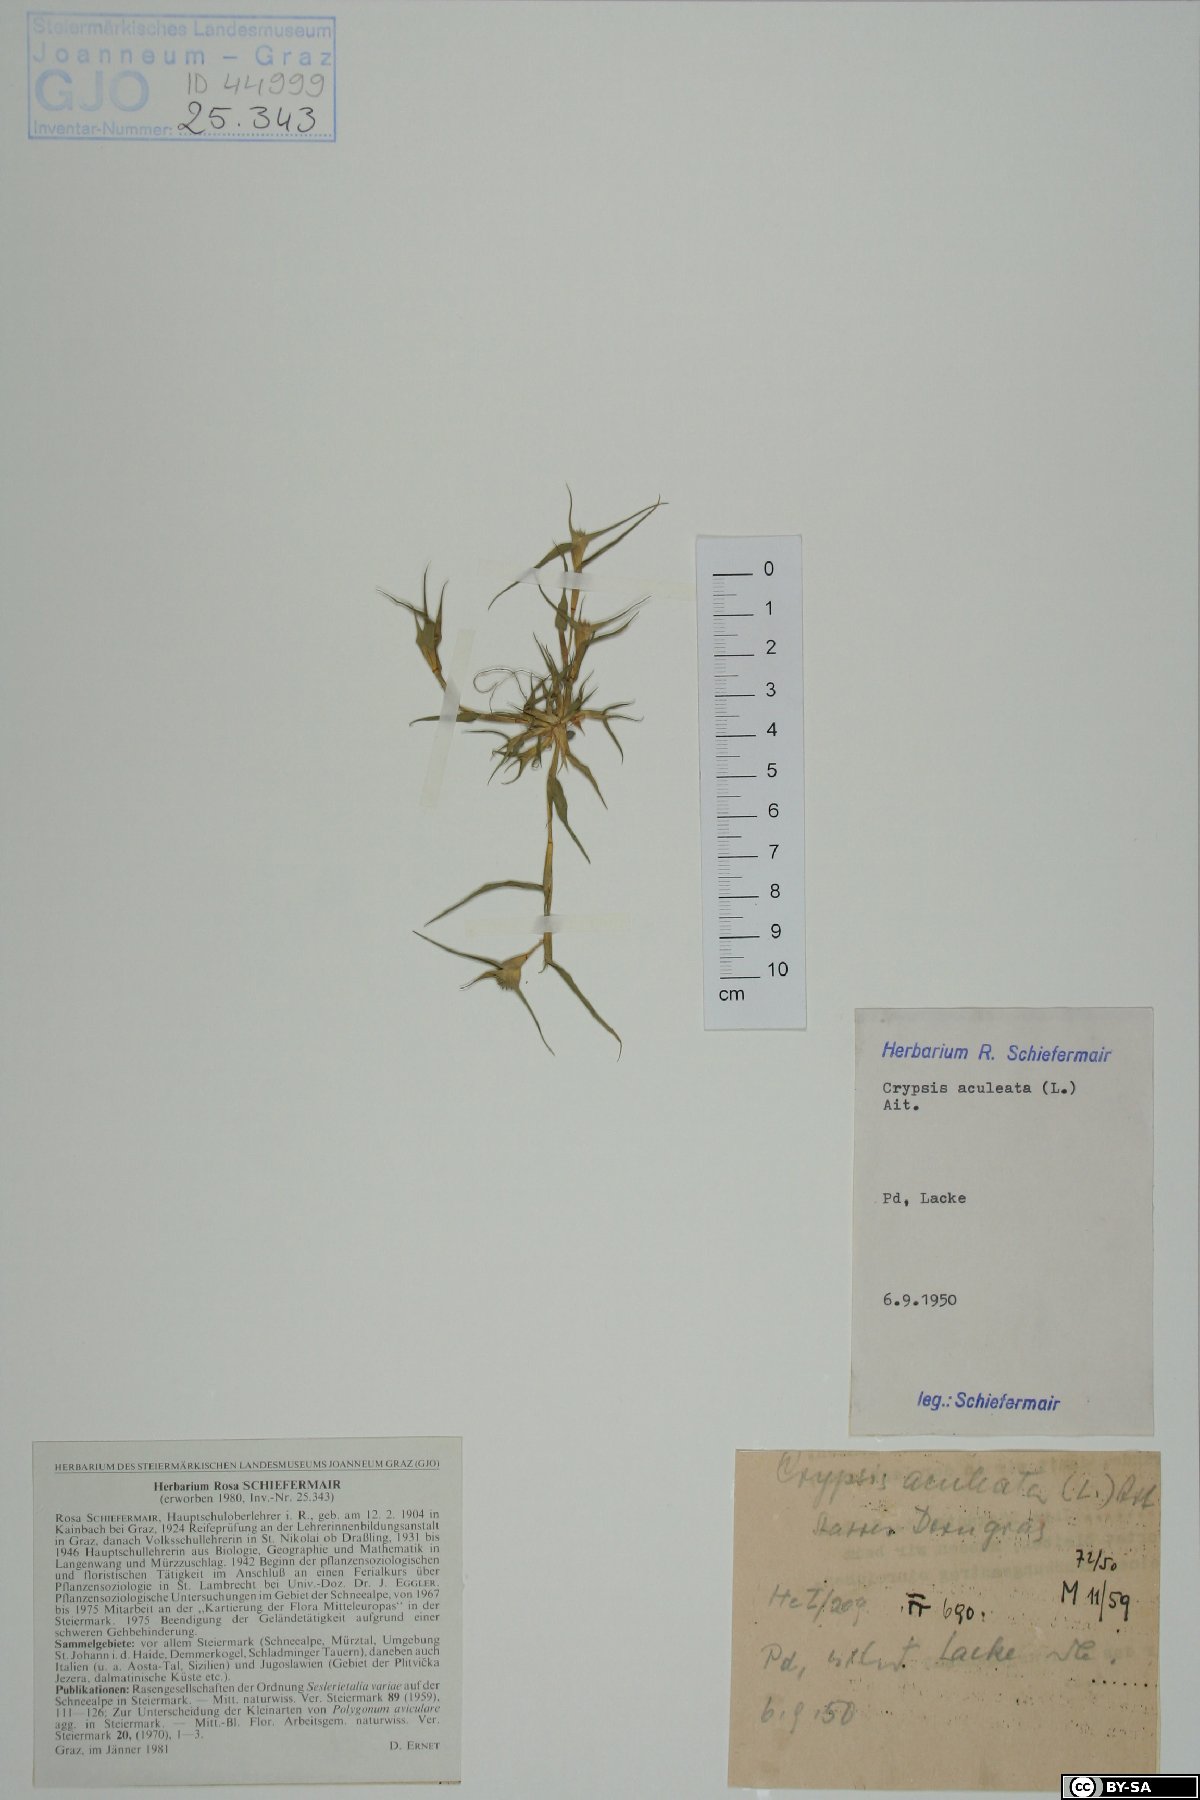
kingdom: Plantae
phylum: Tracheophyta
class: Liliopsida
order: Poales
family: Poaceae
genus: Sporobolus
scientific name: Sporobolus aculeatus
